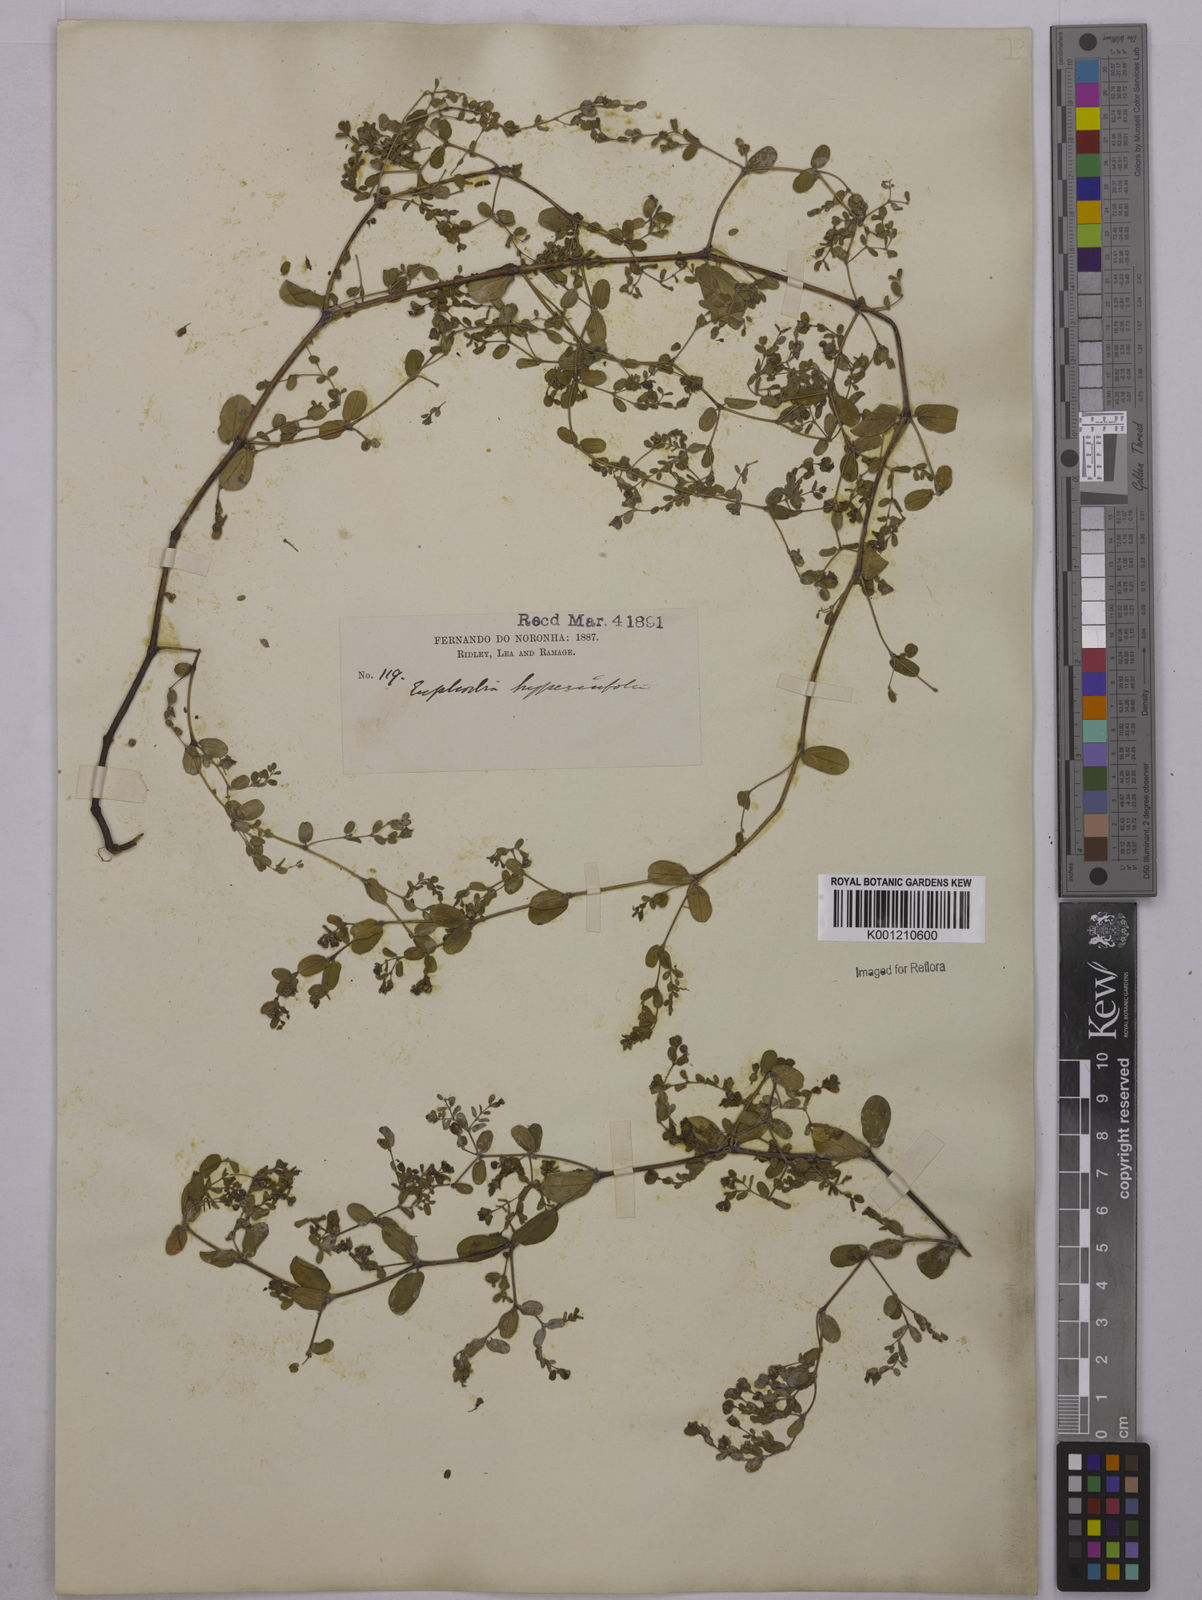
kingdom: Plantae
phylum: Tracheophyta
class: Magnoliopsida
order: Malpighiales
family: Euphorbiaceae
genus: Euphorbia
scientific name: Euphorbia hyssopifolia
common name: Hyssopleaf sandmat
